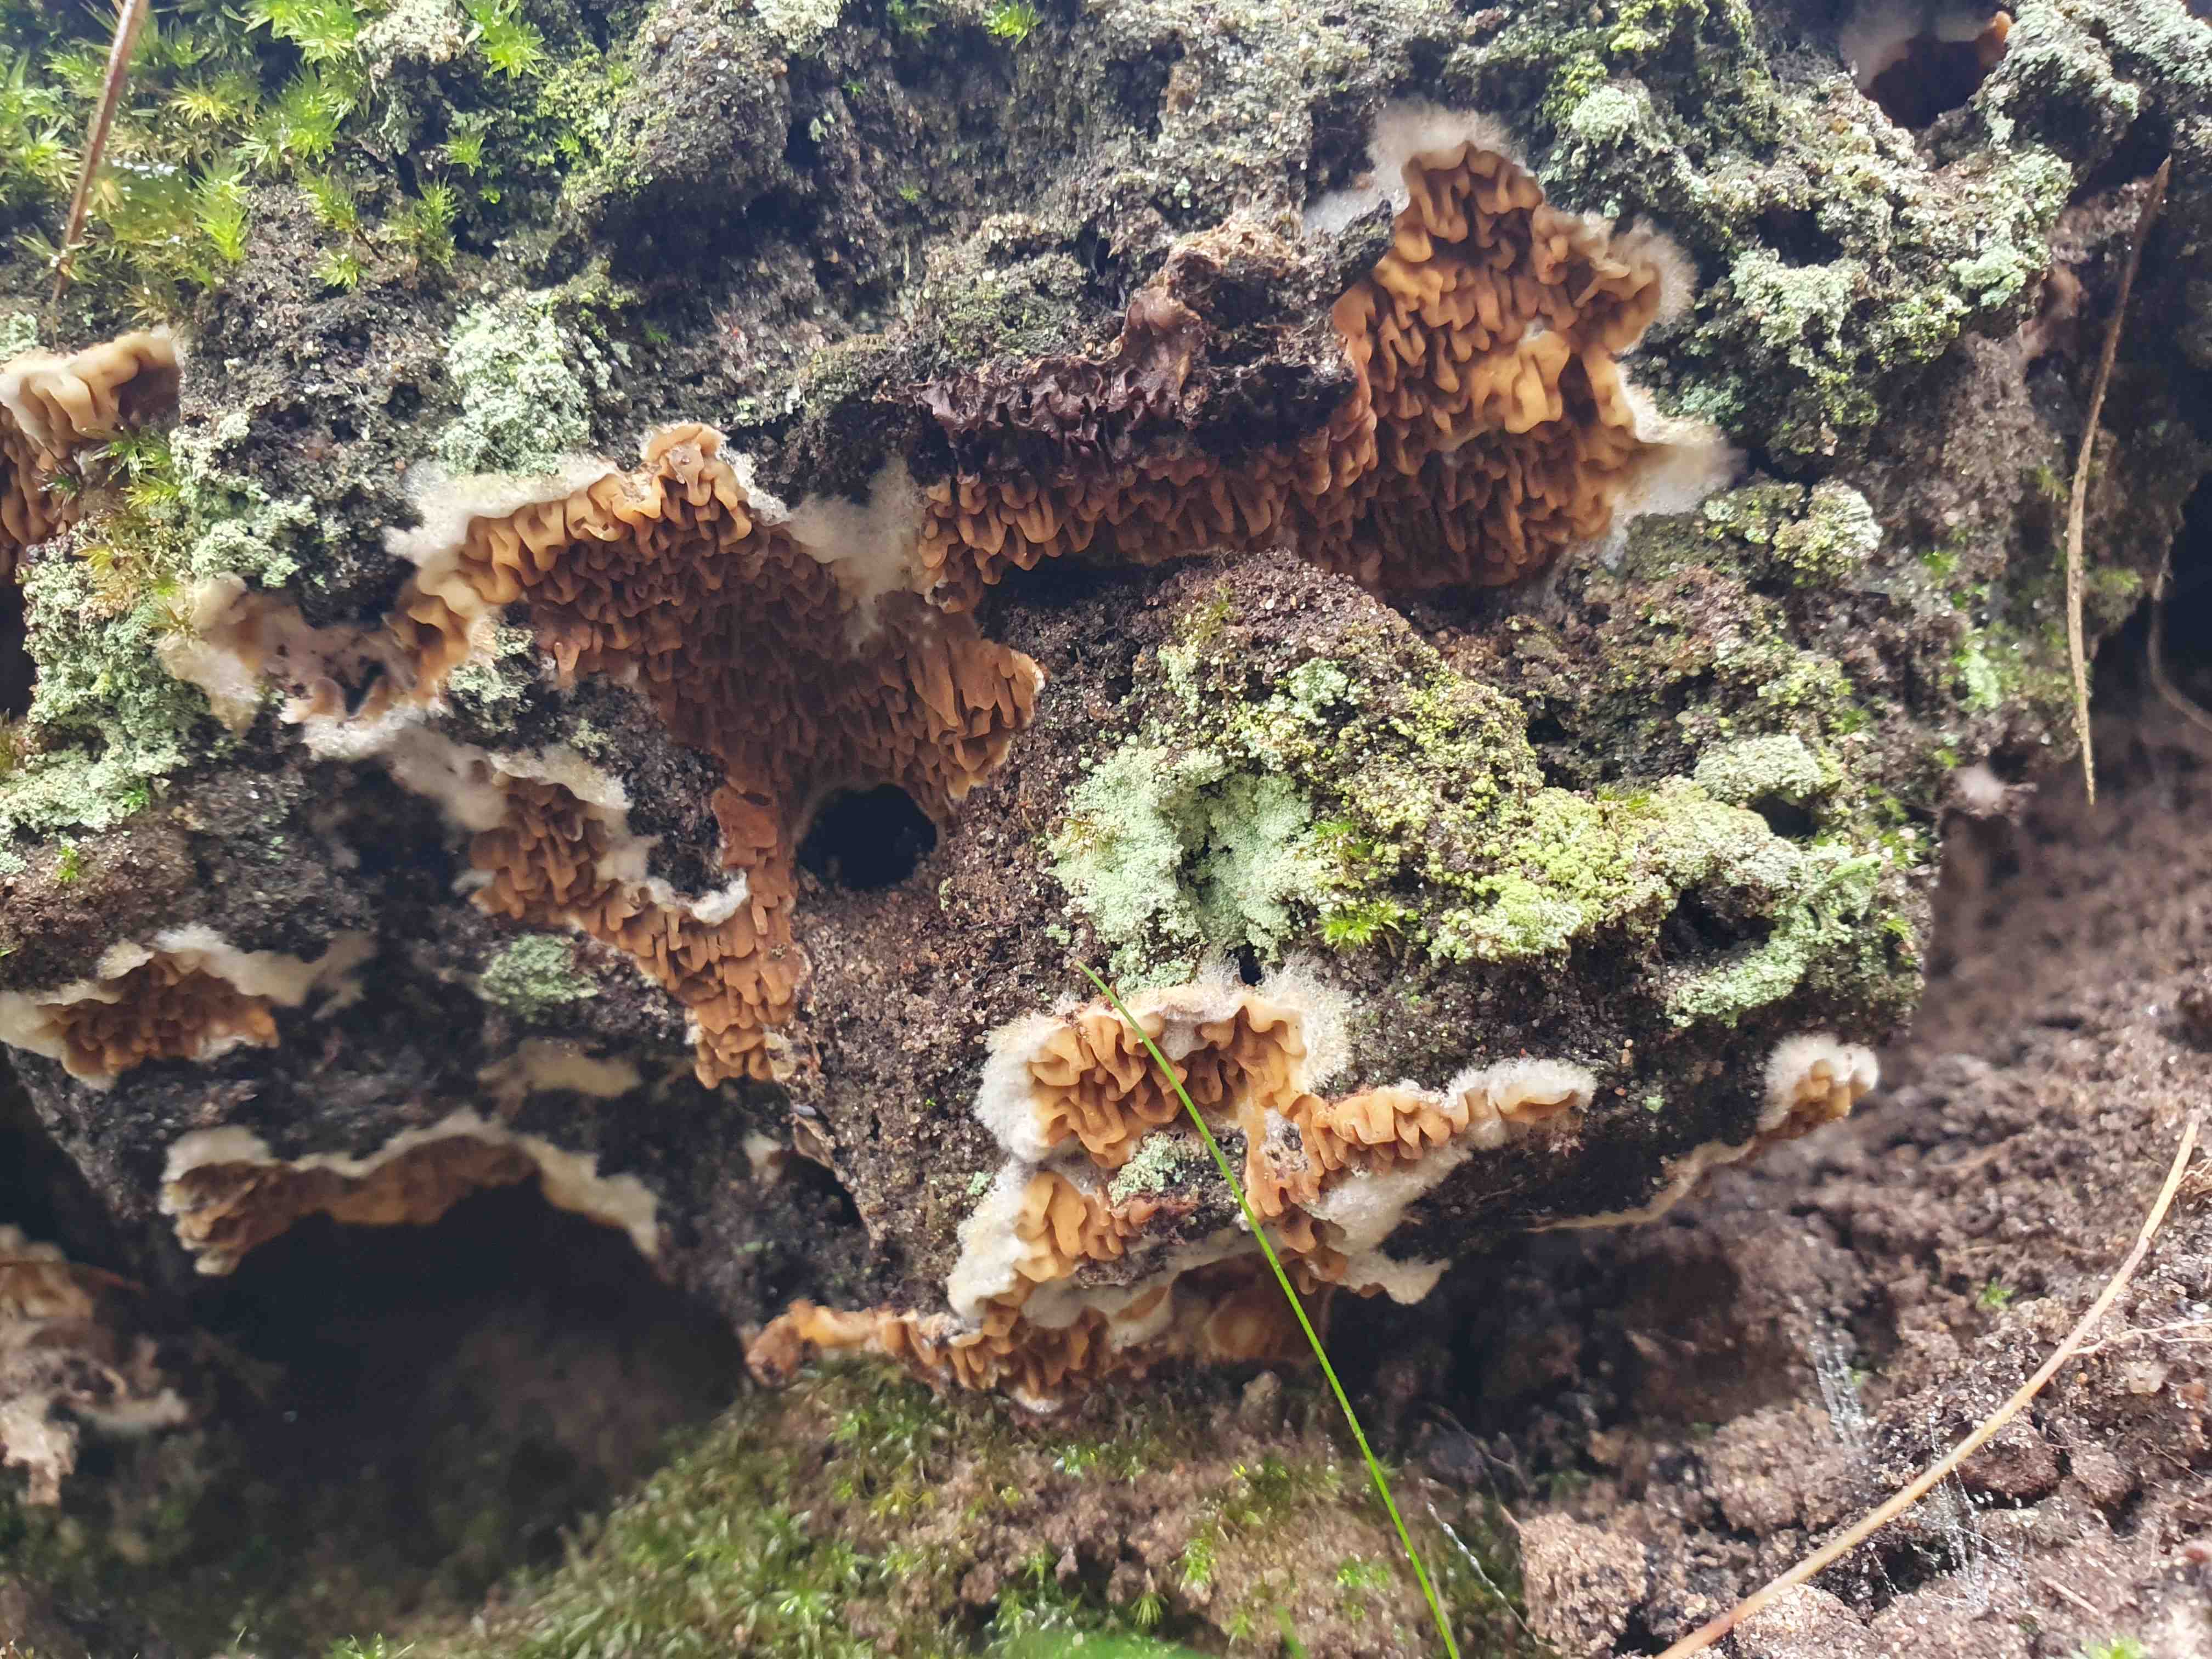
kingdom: Fungi
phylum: Basidiomycota
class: Agaricomycetes
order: Boletales
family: Serpulaceae
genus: Serpula
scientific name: Serpula himantioides
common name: tyndkødet hussvamp
